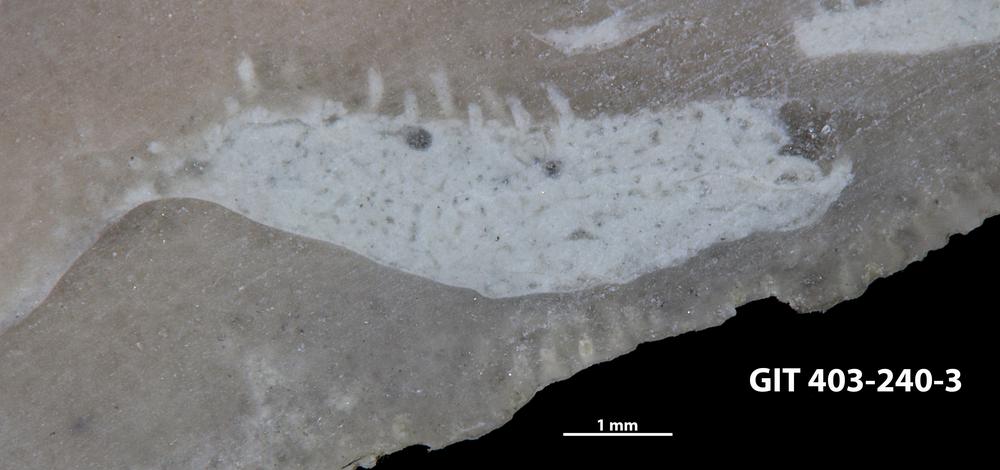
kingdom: Animalia
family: Coprulidae
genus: Coprulus
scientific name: Coprulus
